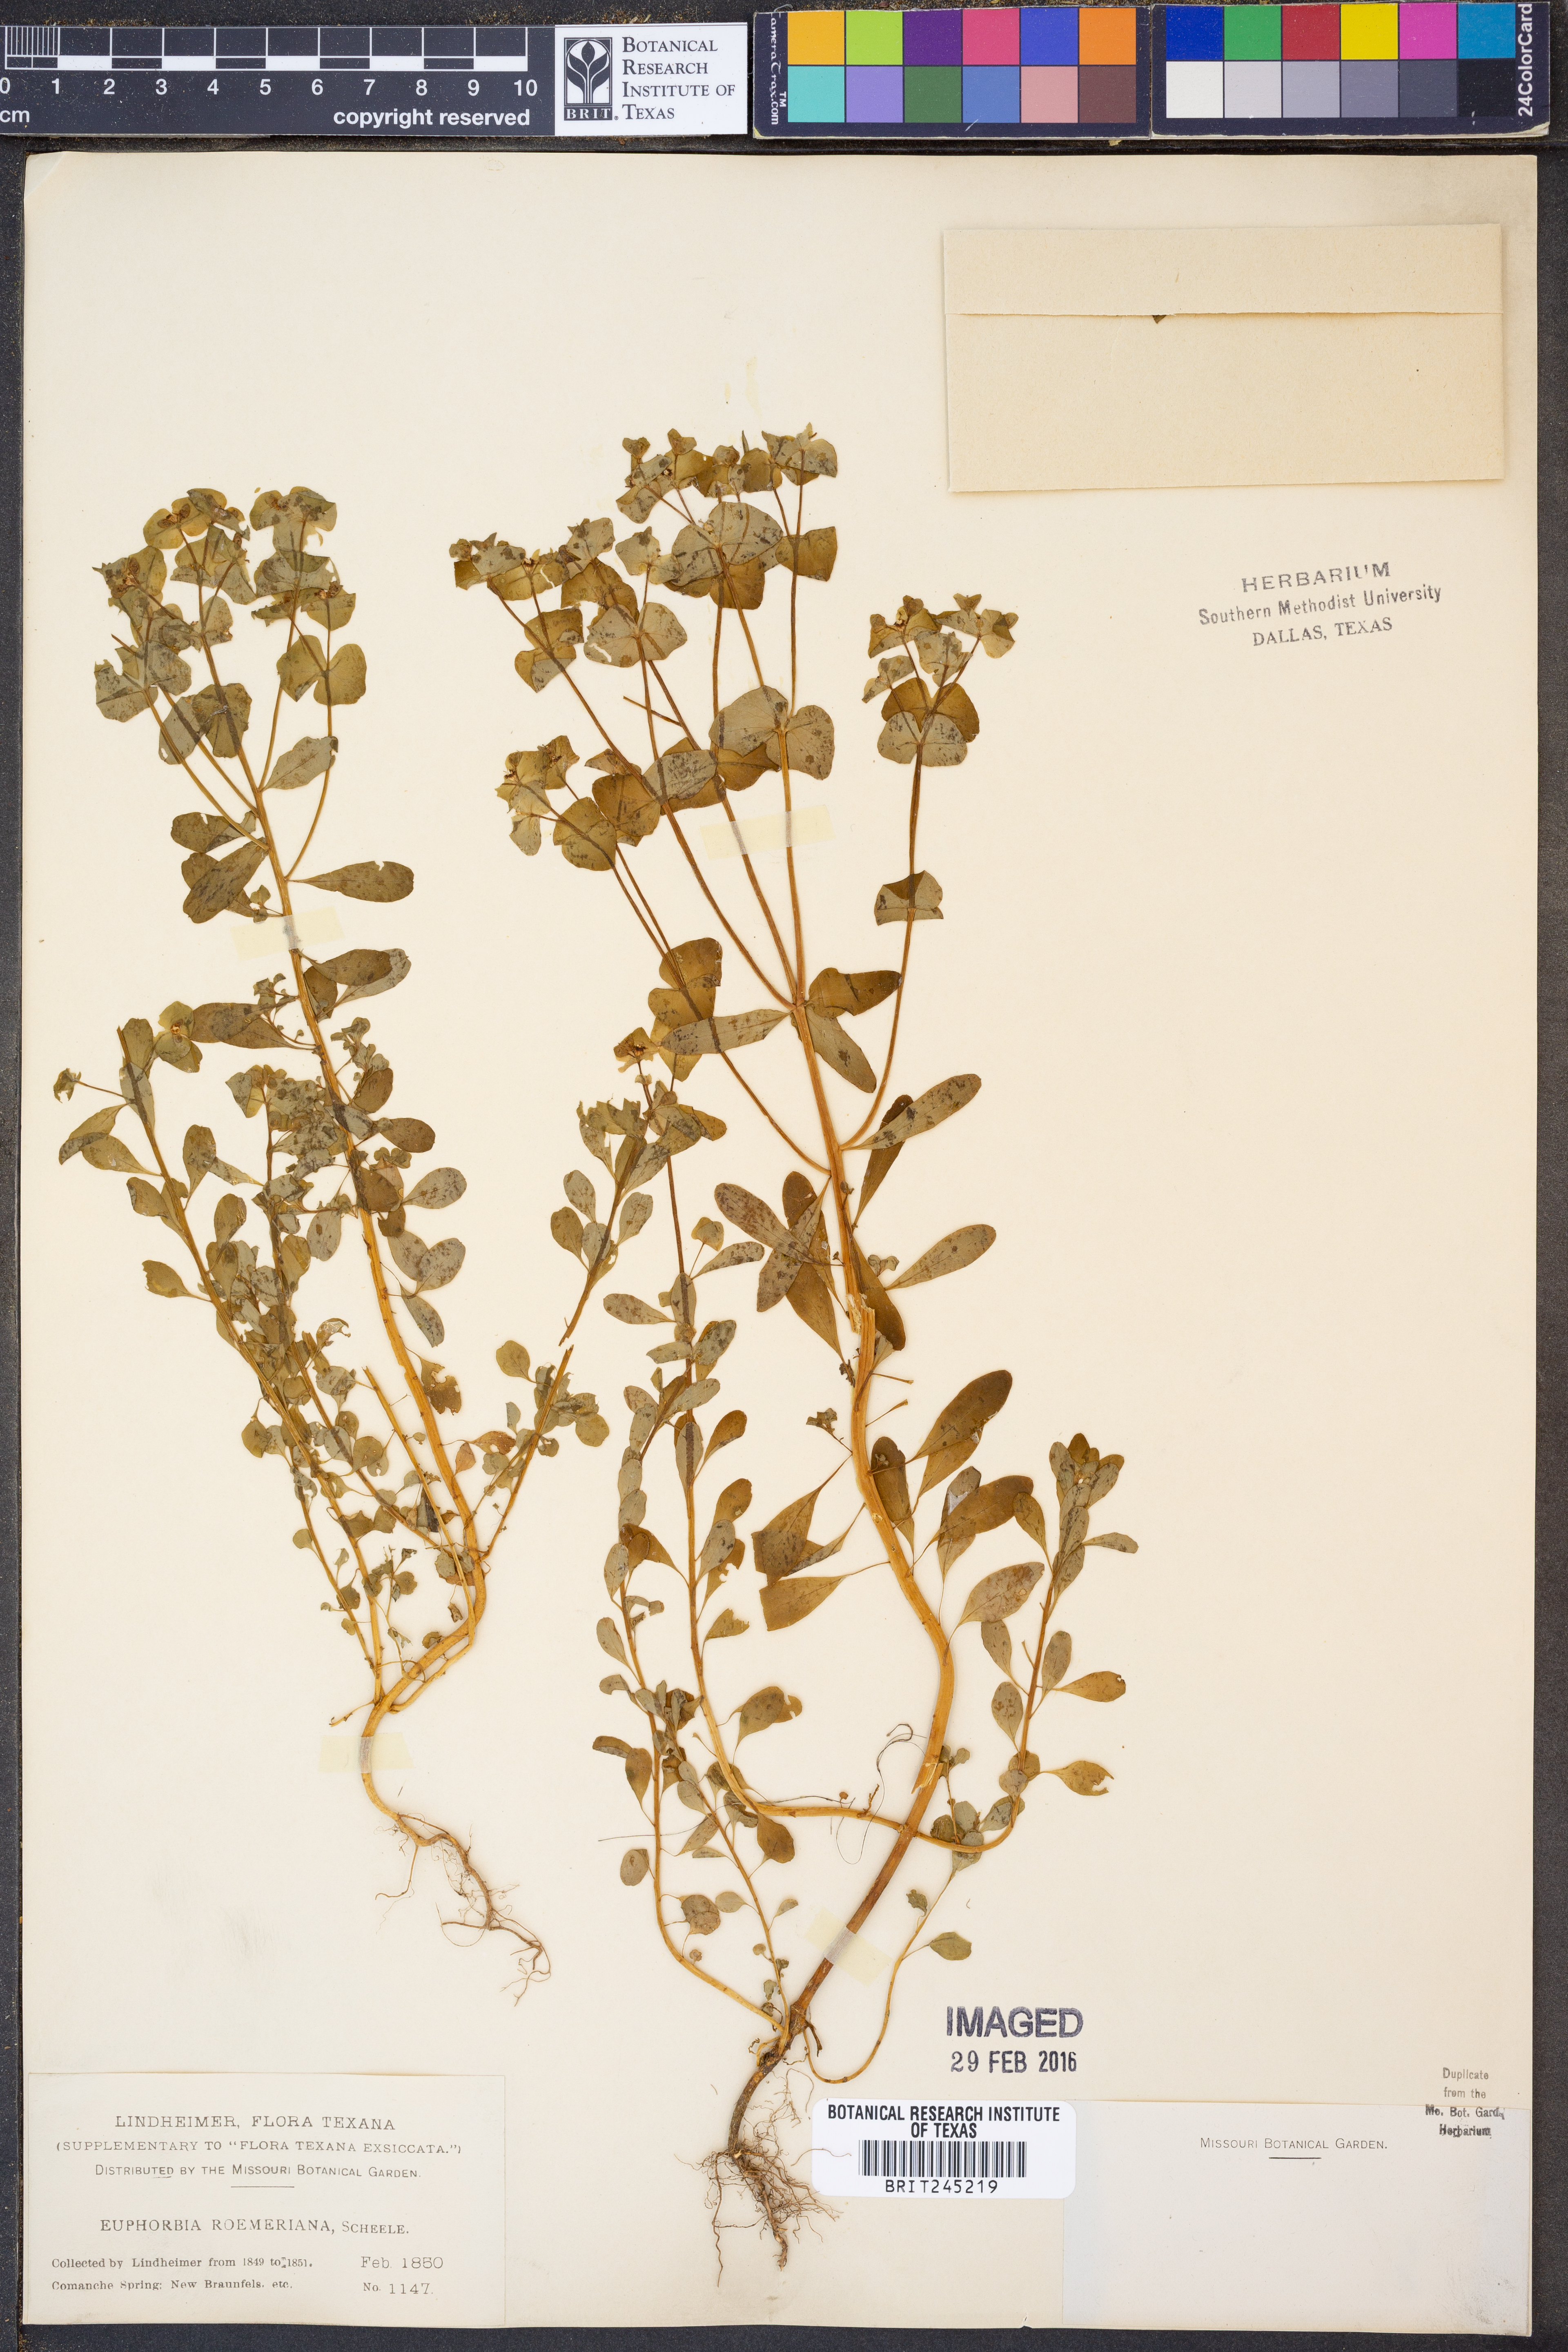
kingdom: Plantae
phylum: Tracheophyta
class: Magnoliopsida
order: Malpighiales
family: Euphorbiaceae
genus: Euphorbia
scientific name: Euphorbia roemeriana
